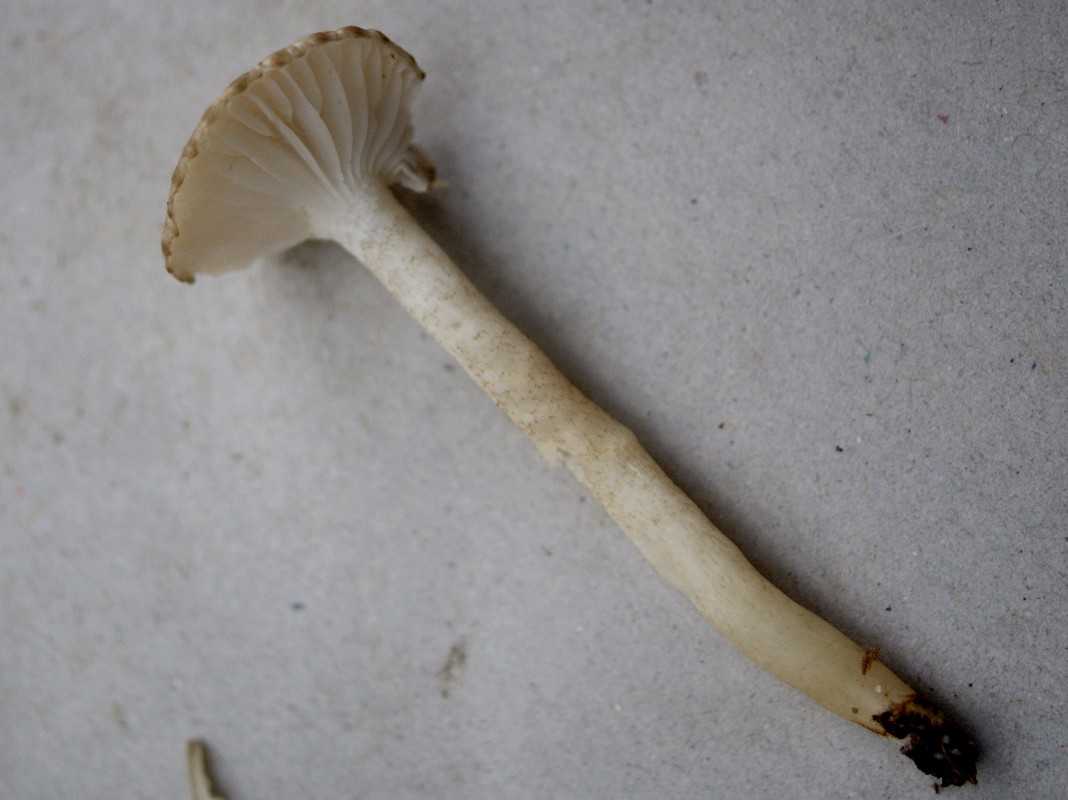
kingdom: Fungi
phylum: Basidiomycota
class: Agaricomycetes
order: Agaricales
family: Hygrophoraceae
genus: Hygrophorus
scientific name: Hygrophorus pustulatus
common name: mørkprikket sneglehat
